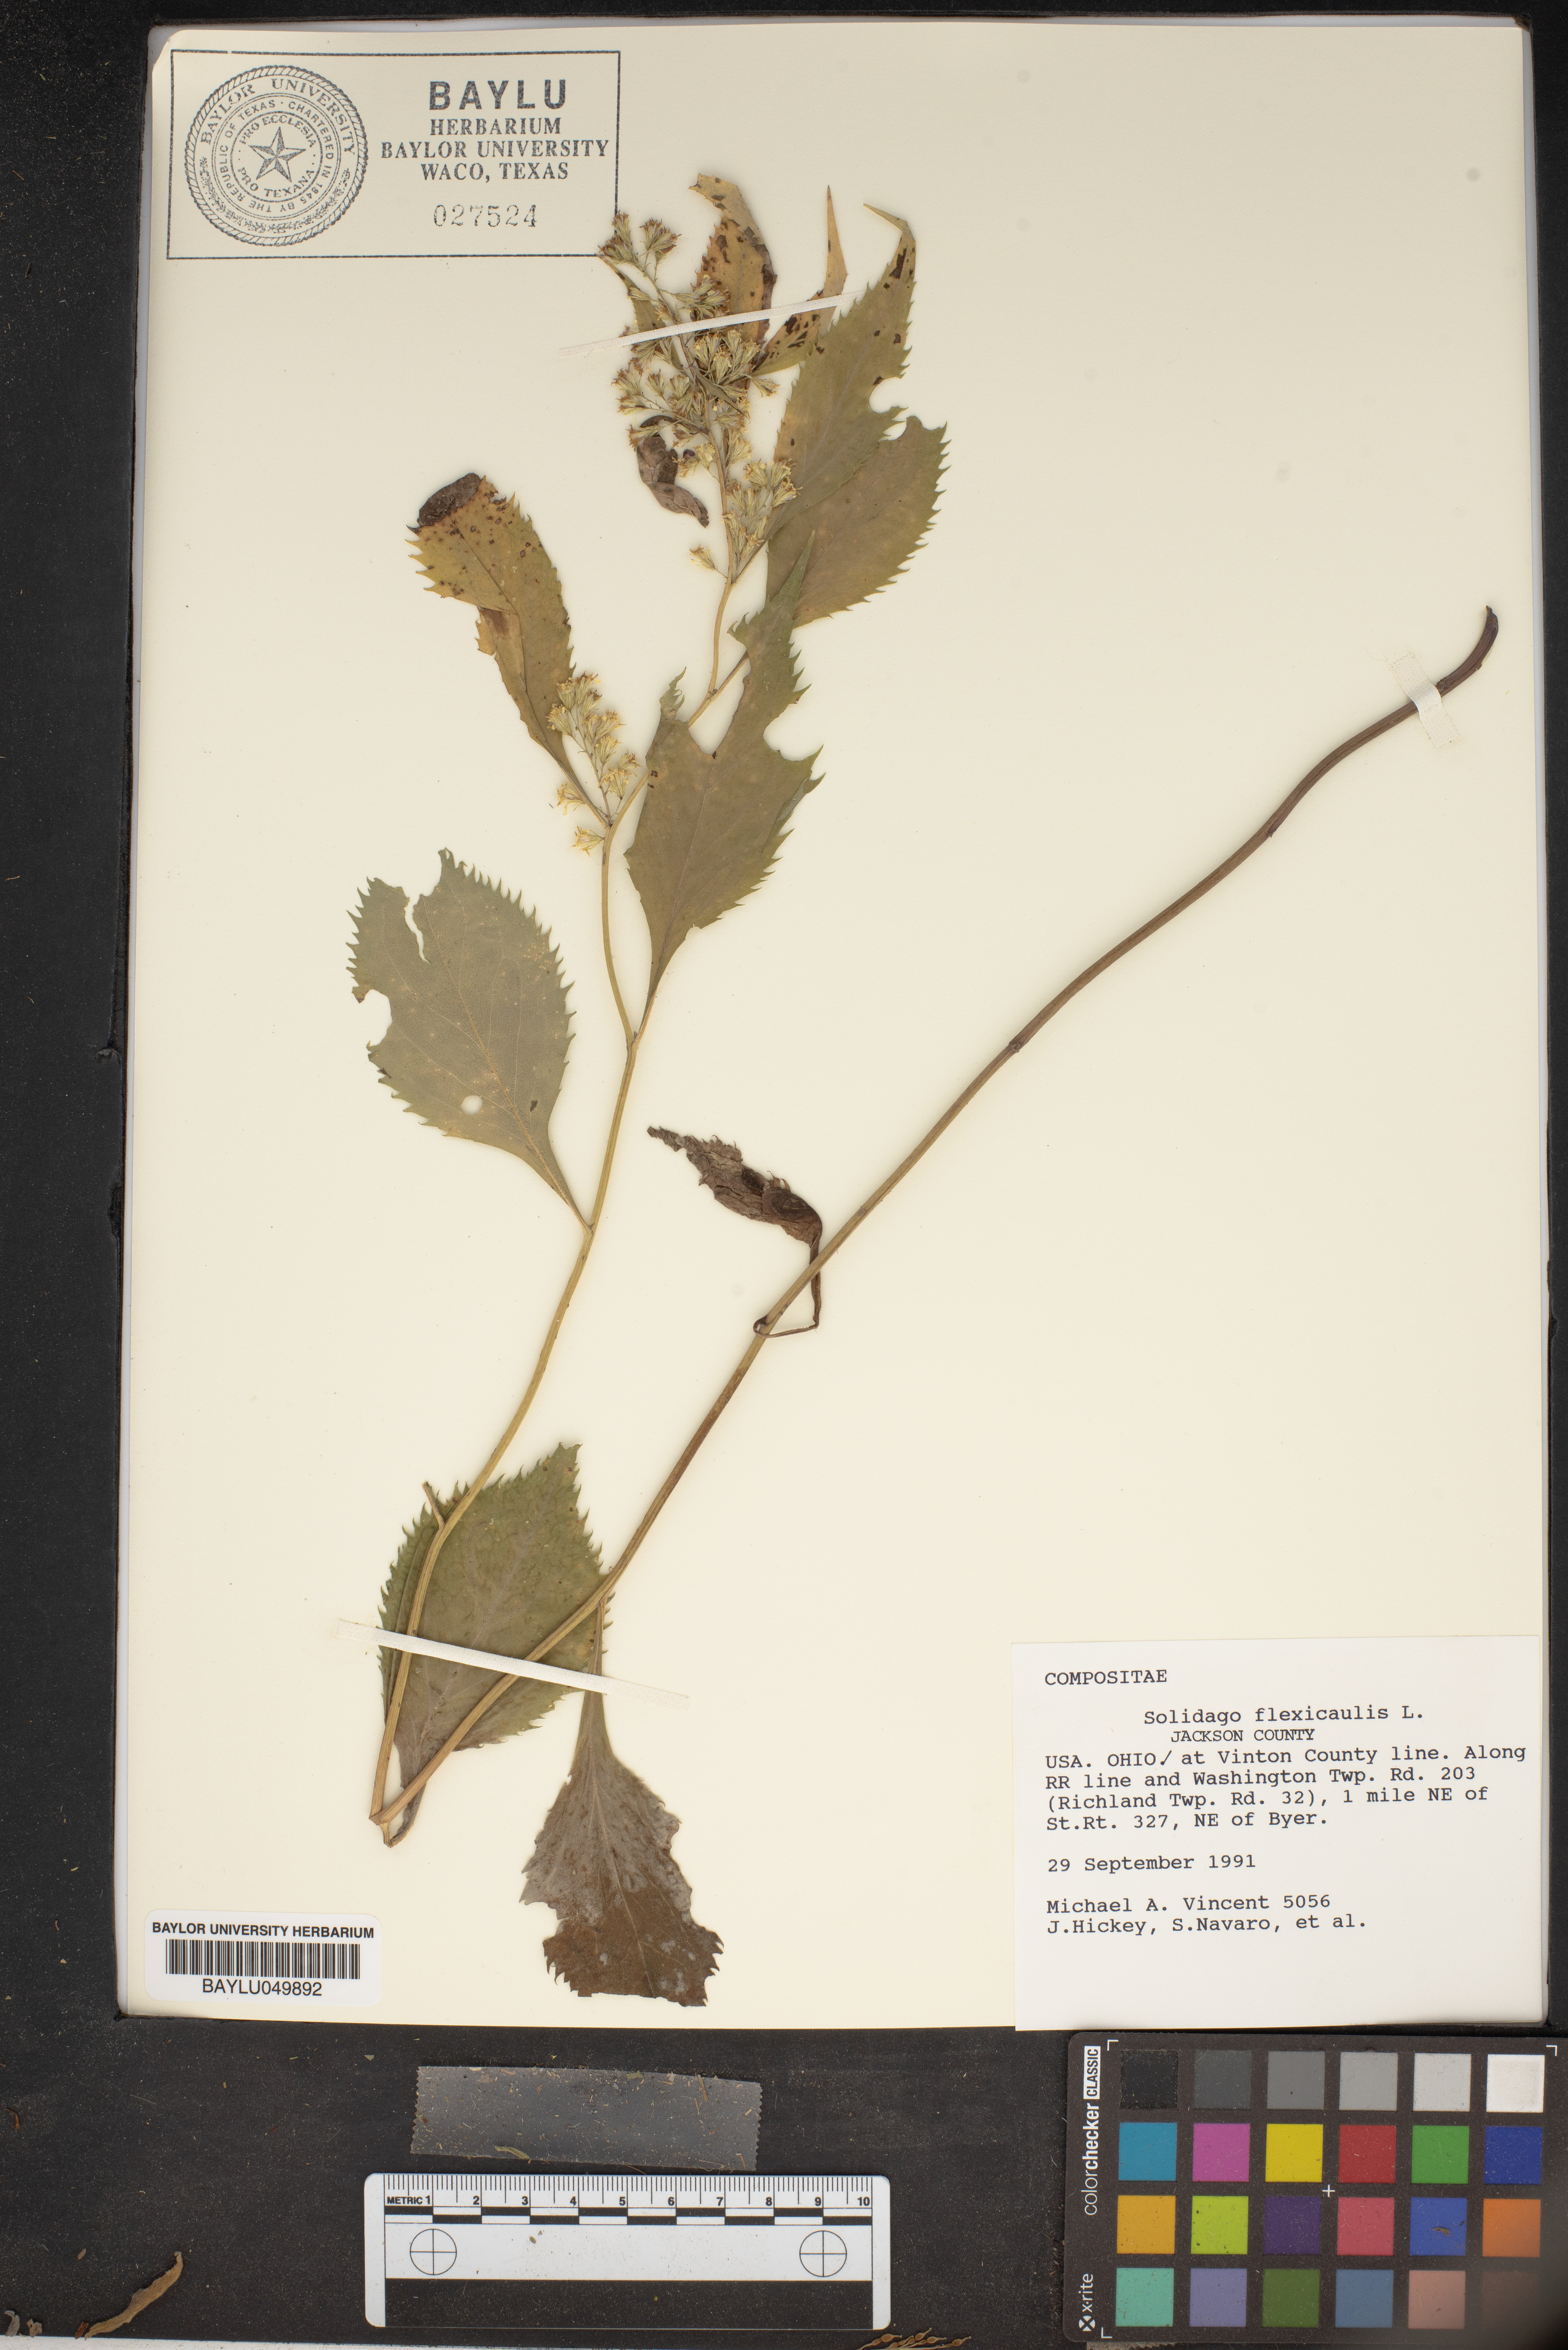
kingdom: Plantae
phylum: Tracheophyta
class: Magnoliopsida
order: Asterales
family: Asteraceae
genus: Solidago
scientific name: Solidago flexicaulis
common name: Zig-zag goldenrod
